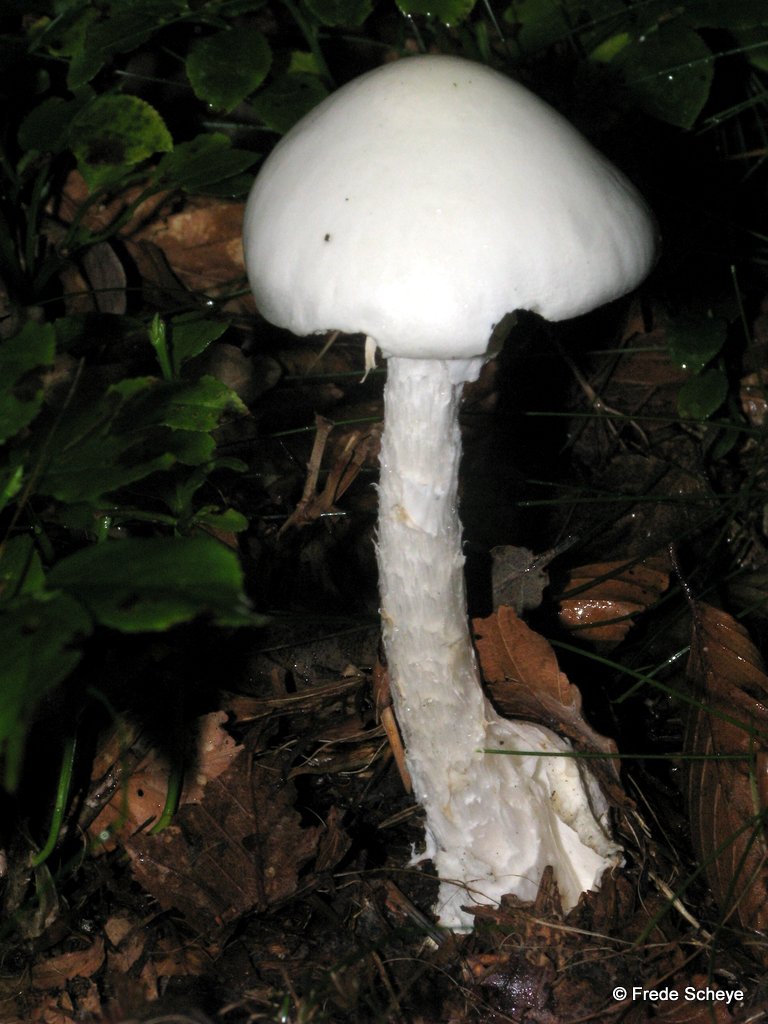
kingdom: Fungi
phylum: Basidiomycota
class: Agaricomycetes
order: Agaricales
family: Amanitaceae
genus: Amanita
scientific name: Amanita virosa
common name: snehvid fluesvamp
